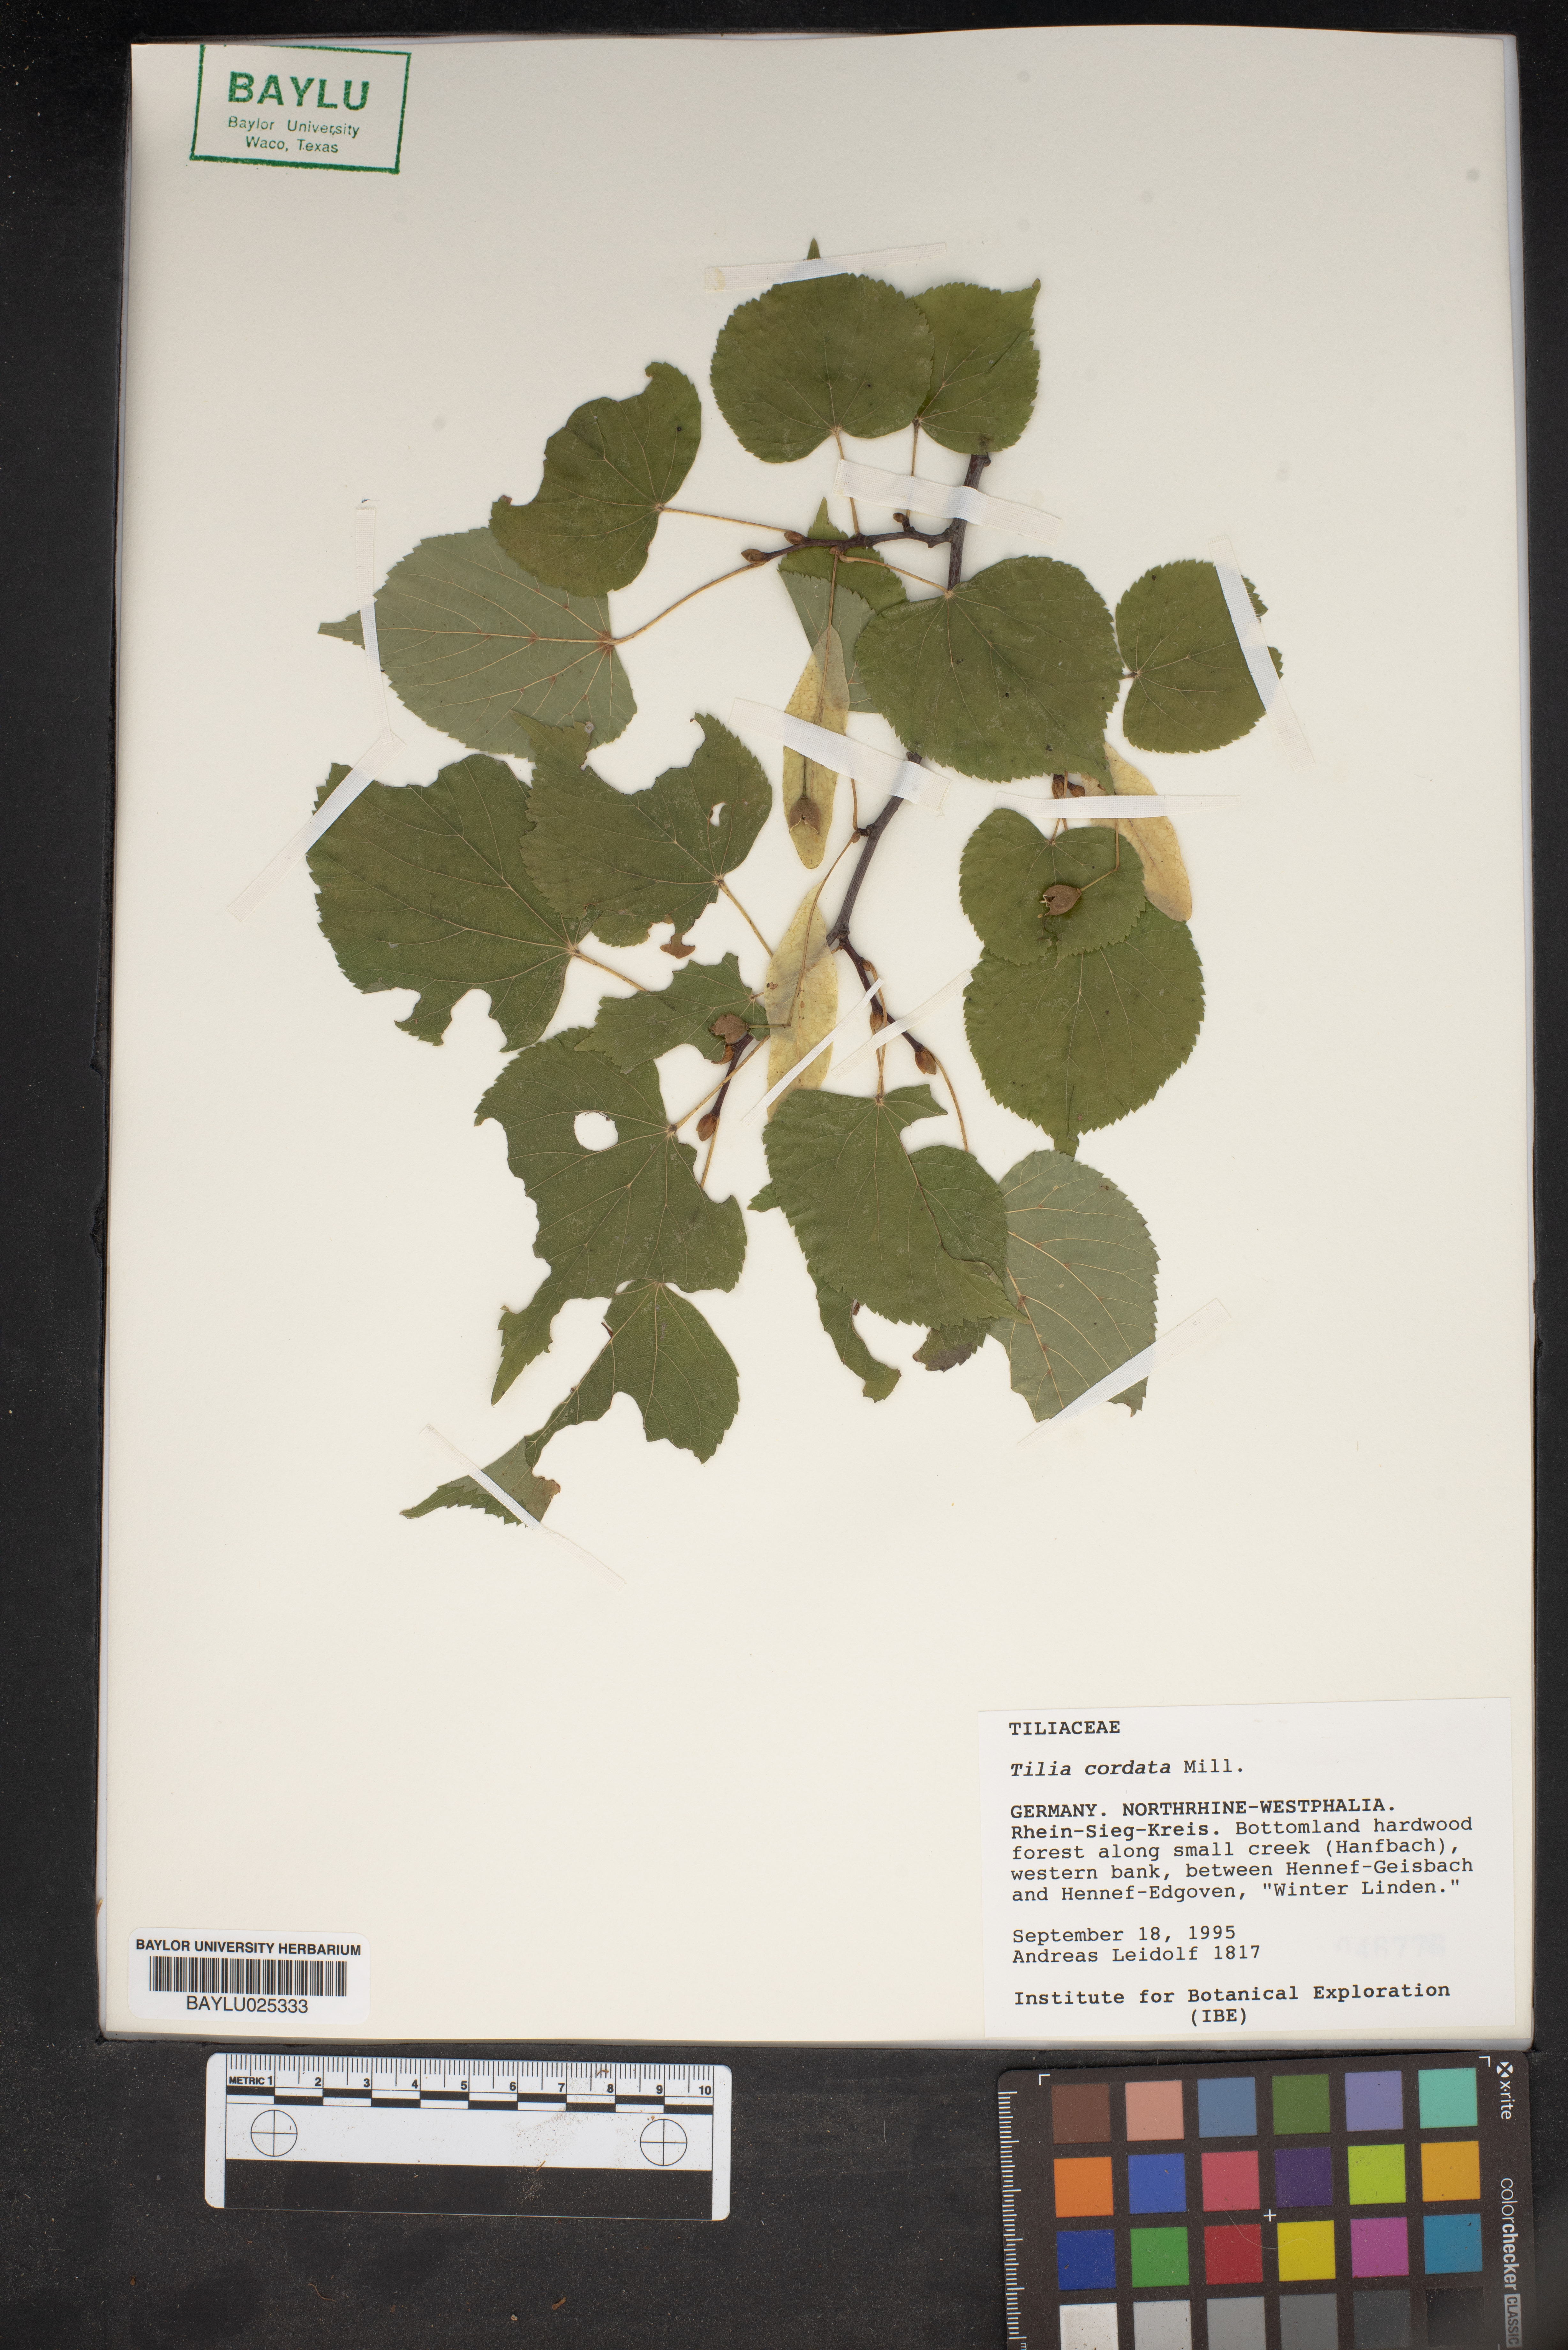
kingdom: Plantae
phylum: Tracheophyta
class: Magnoliopsida
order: Malvales
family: Malvaceae
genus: Tilia
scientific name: Tilia cordata
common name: Small-leaved lime
